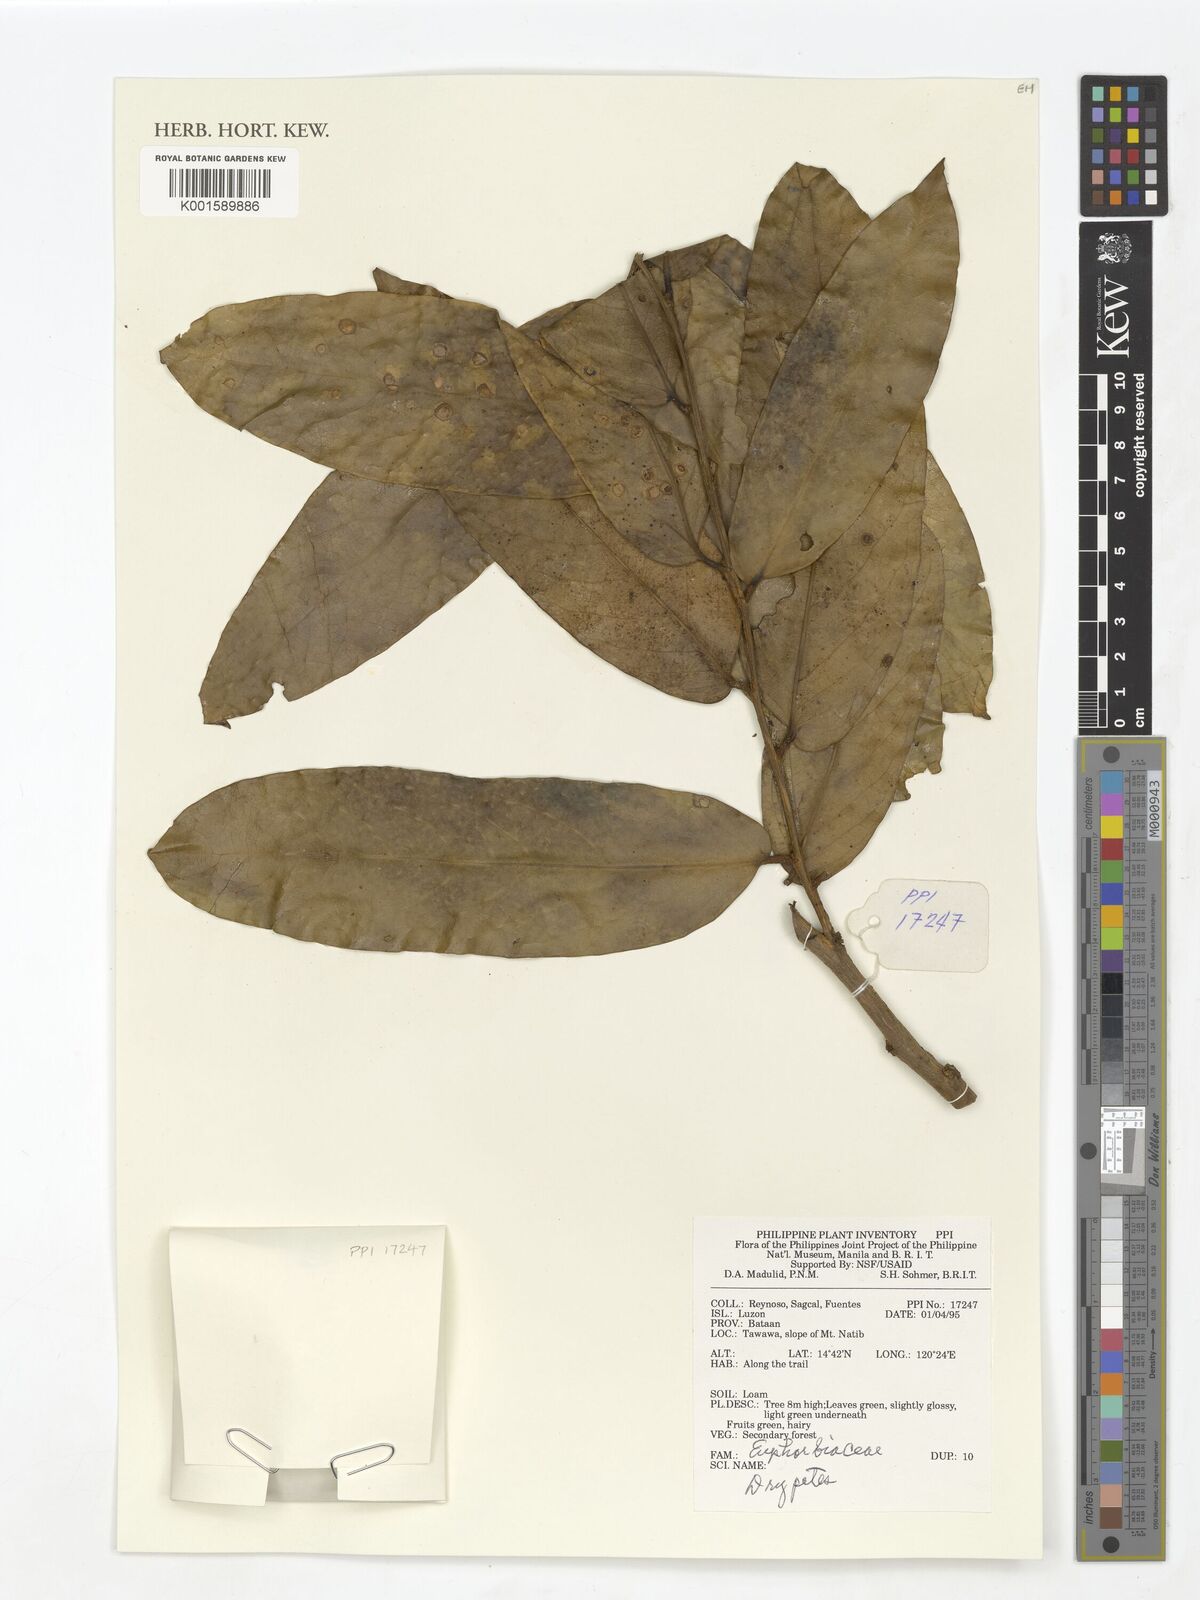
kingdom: Plantae
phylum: Tracheophyta
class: Magnoliopsida
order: Malpighiales
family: Putranjivaceae
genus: Drypetes
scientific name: Drypetes
